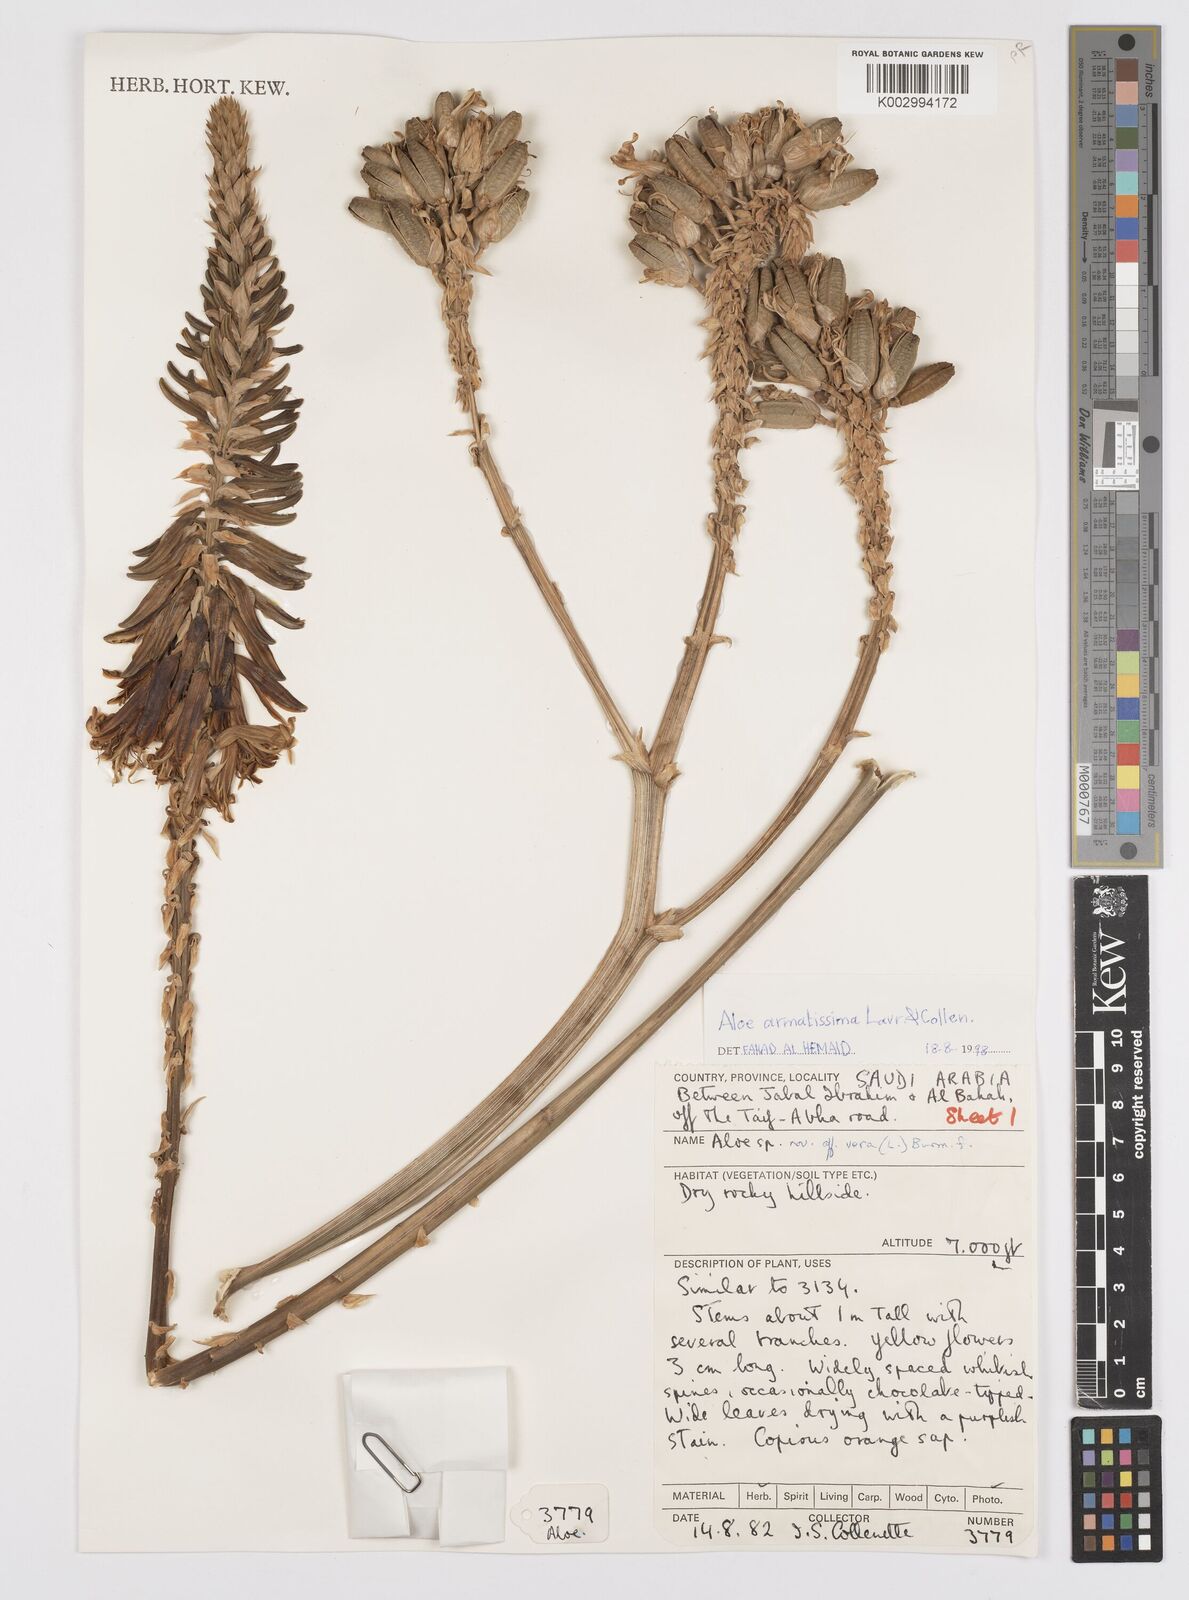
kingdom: Plantae
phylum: Tracheophyta
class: Liliopsida
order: Asparagales
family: Asphodelaceae
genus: Aloe
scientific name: Aloe armatissima
